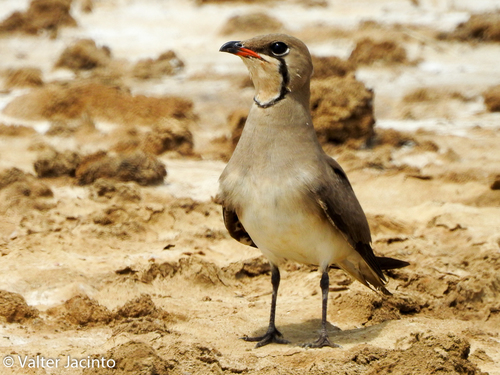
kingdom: Animalia
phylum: Chordata
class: Aves
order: Charadriiformes
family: Glareolidae
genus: Glareola
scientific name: Glareola pratincola
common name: Collared pratincole
